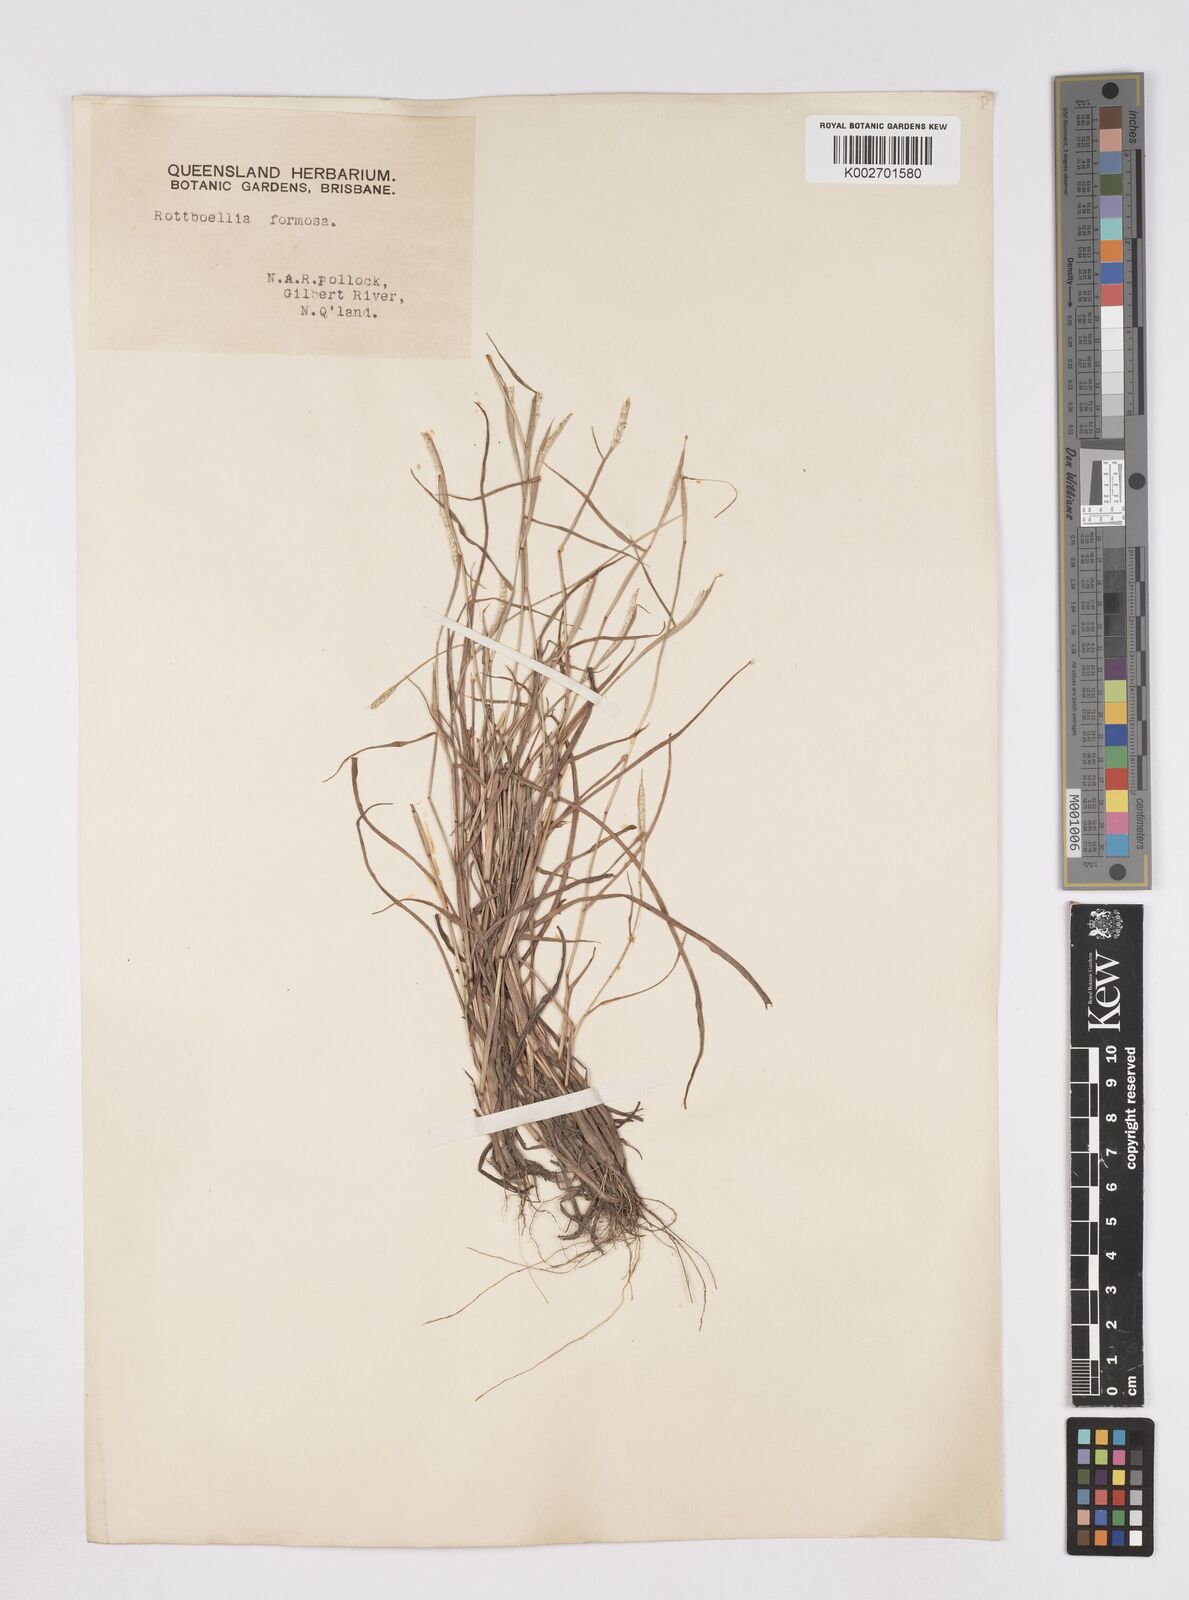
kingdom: Plantae
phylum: Tracheophyta
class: Liliopsida
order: Poales
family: Poaceae
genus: Heteropholis
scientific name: Heteropholis
